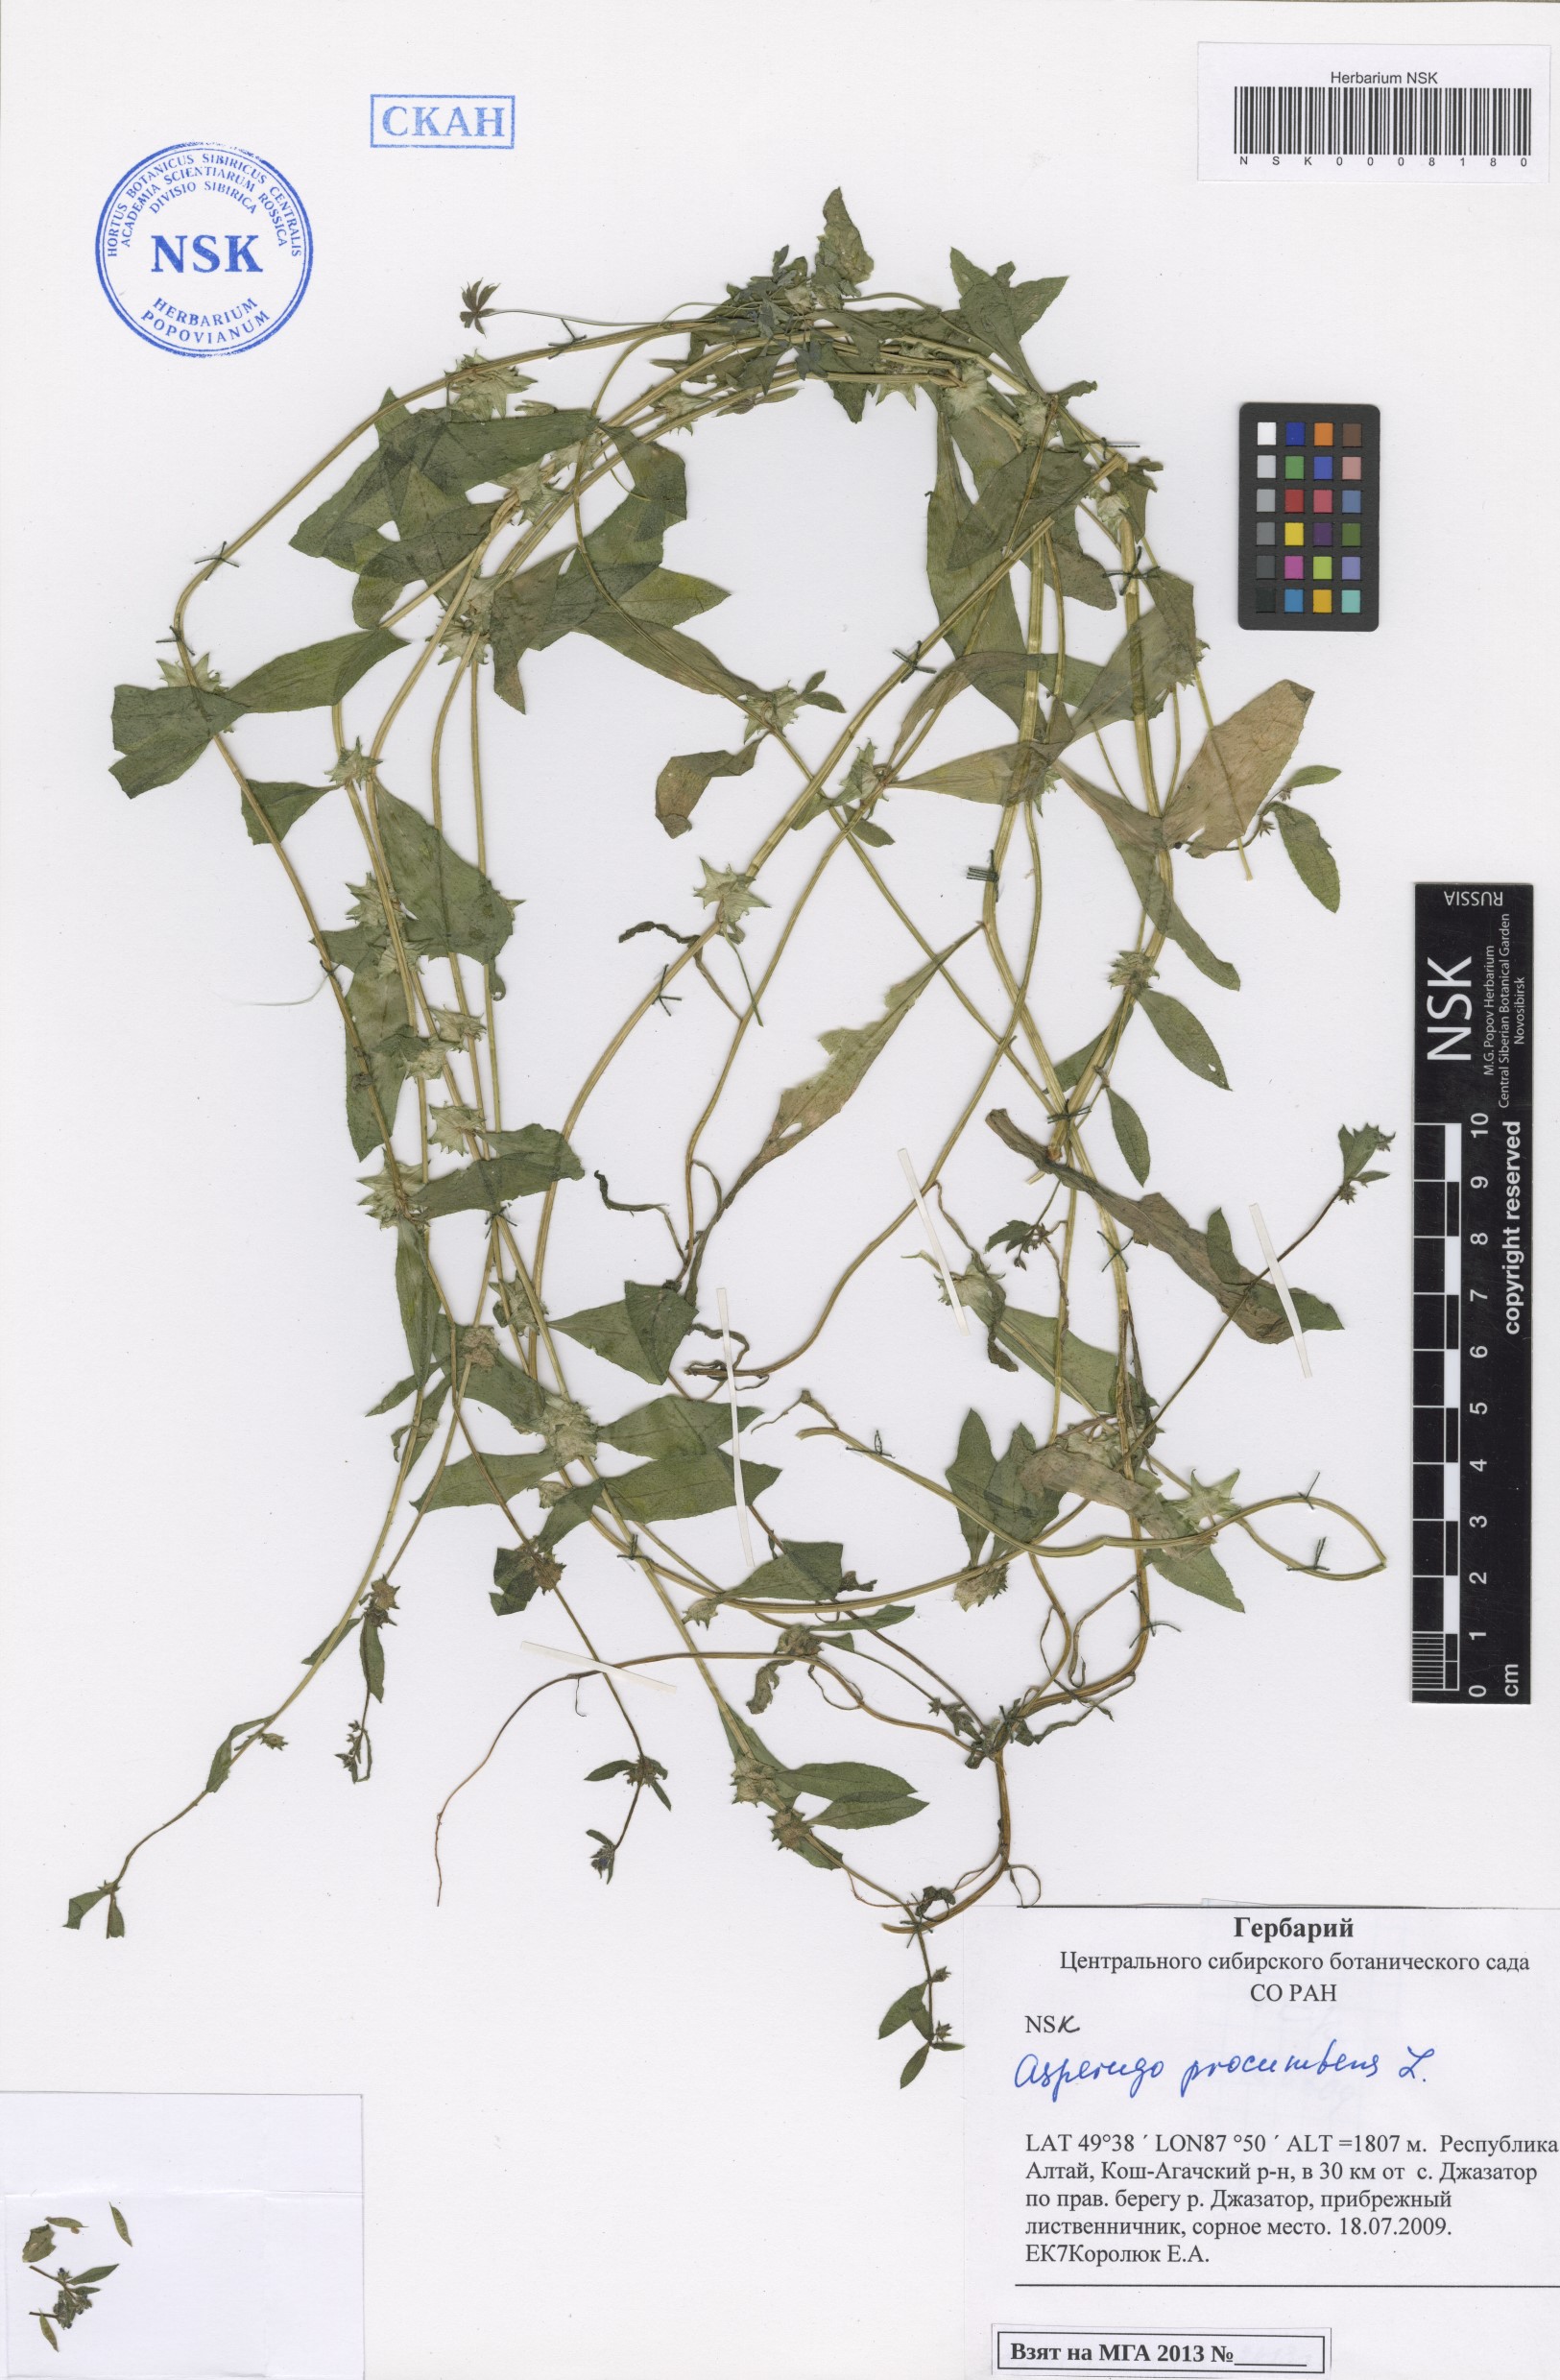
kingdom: Plantae
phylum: Tracheophyta
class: Magnoliopsida
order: Boraginales
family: Boraginaceae
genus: Asperugo
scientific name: Asperugo procumbens
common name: Madwort
